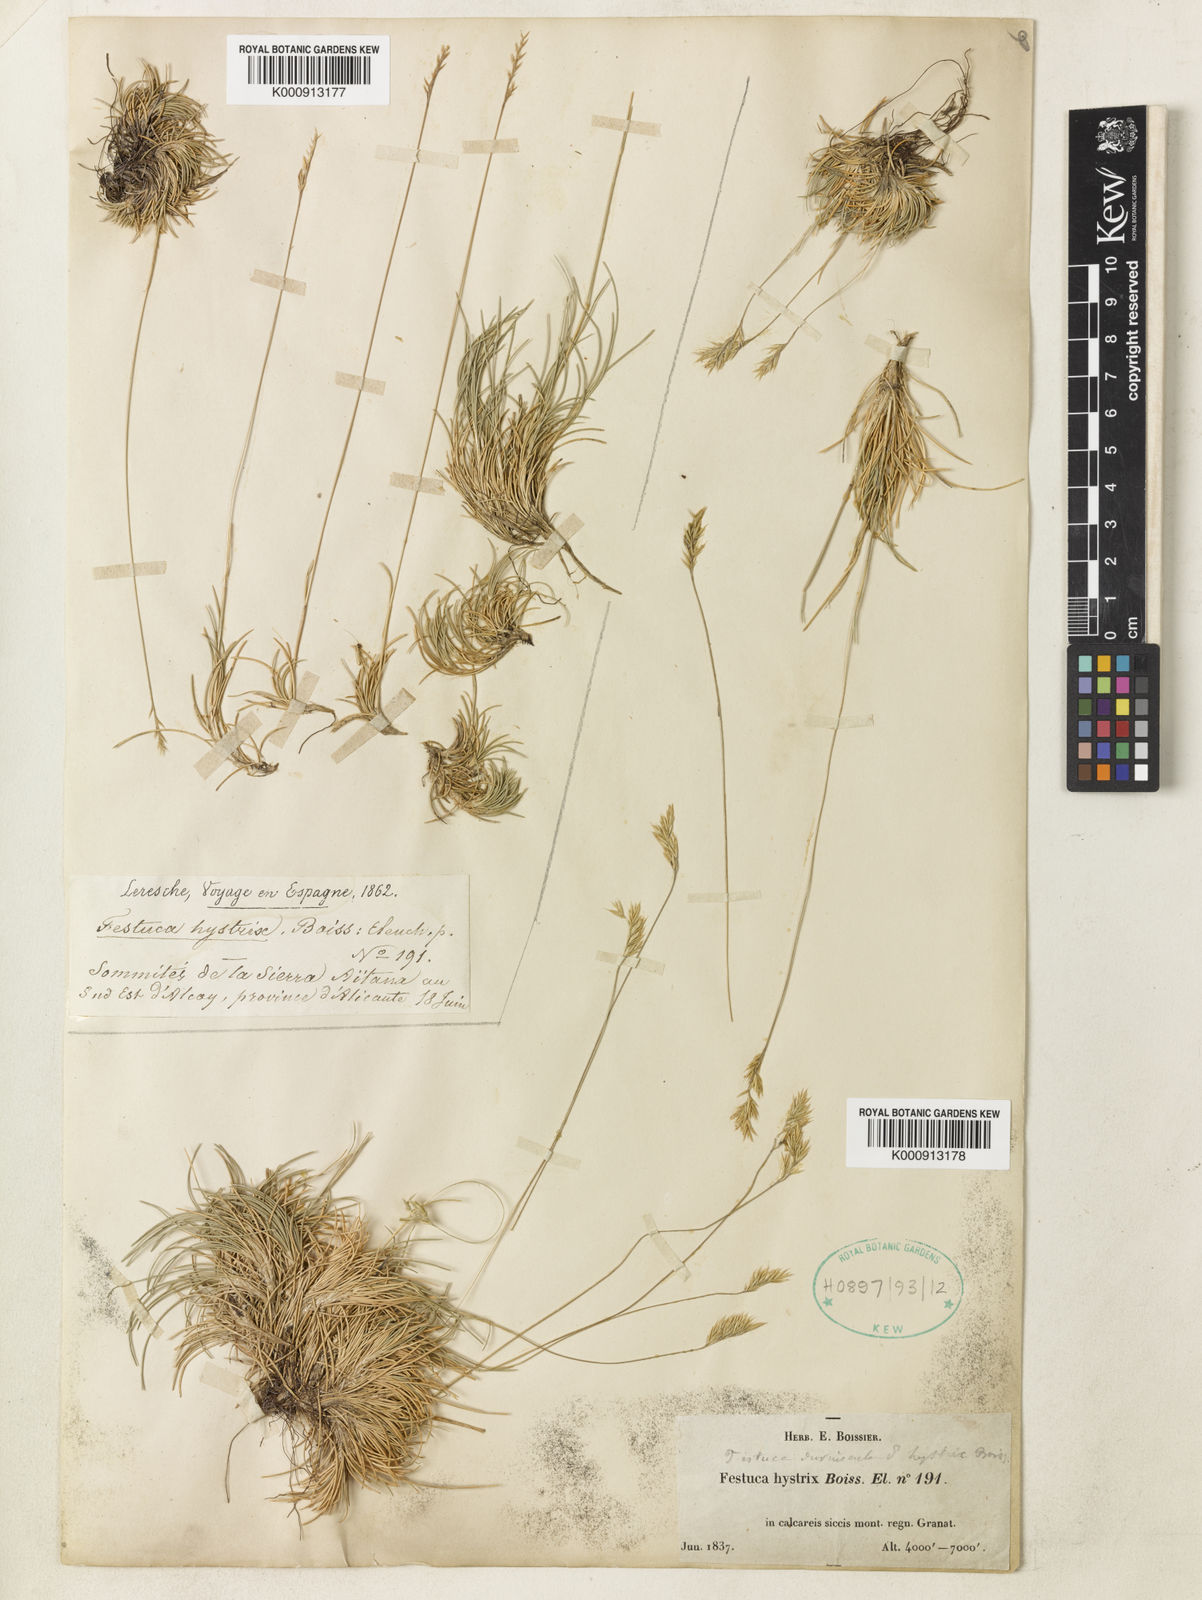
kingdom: Plantae
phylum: Tracheophyta
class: Liliopsida
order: Poales
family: Poaceae
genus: Festuca
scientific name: Festuca liviensis
